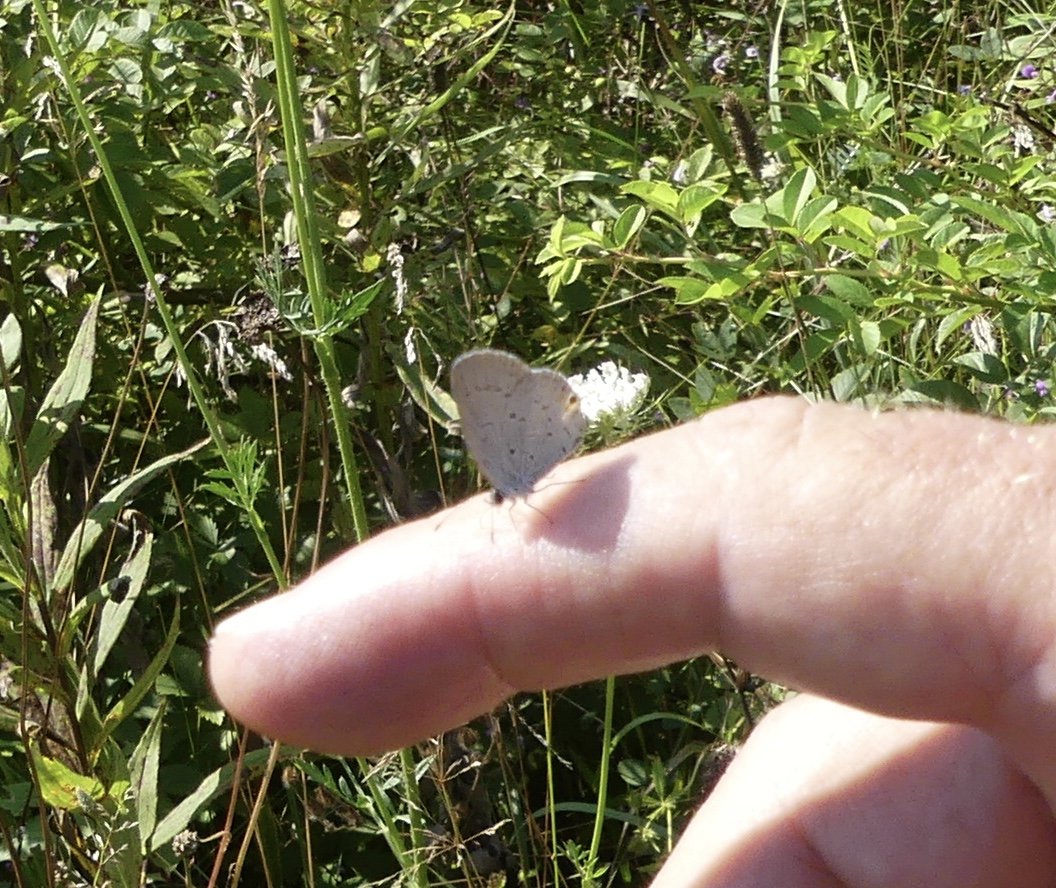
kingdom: Animalia
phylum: Arthropoda
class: Insecta
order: Lepidoptera
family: Lycaenidae
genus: Elkalyce
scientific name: Elkalyce comyntas
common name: Eastern Tailed-Blue
